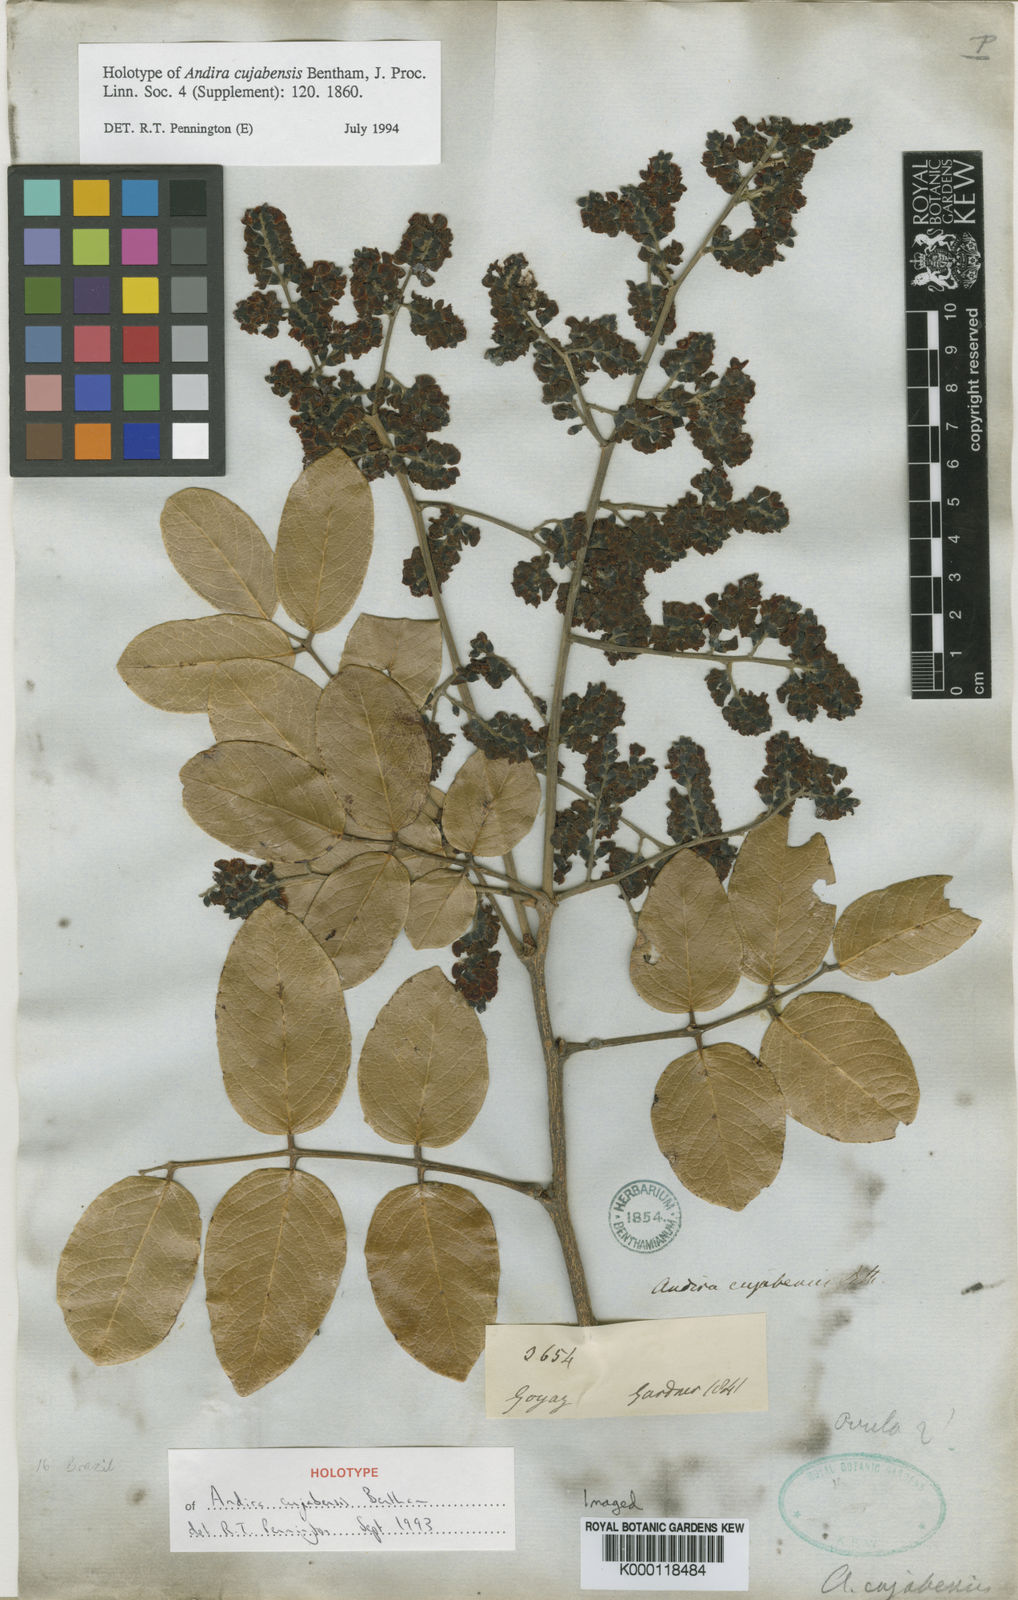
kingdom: Plantae
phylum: Tracheophyta
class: Magnoliopsida
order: Fabales
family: Fabaceae
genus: Andira
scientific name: Andira cujabensis
